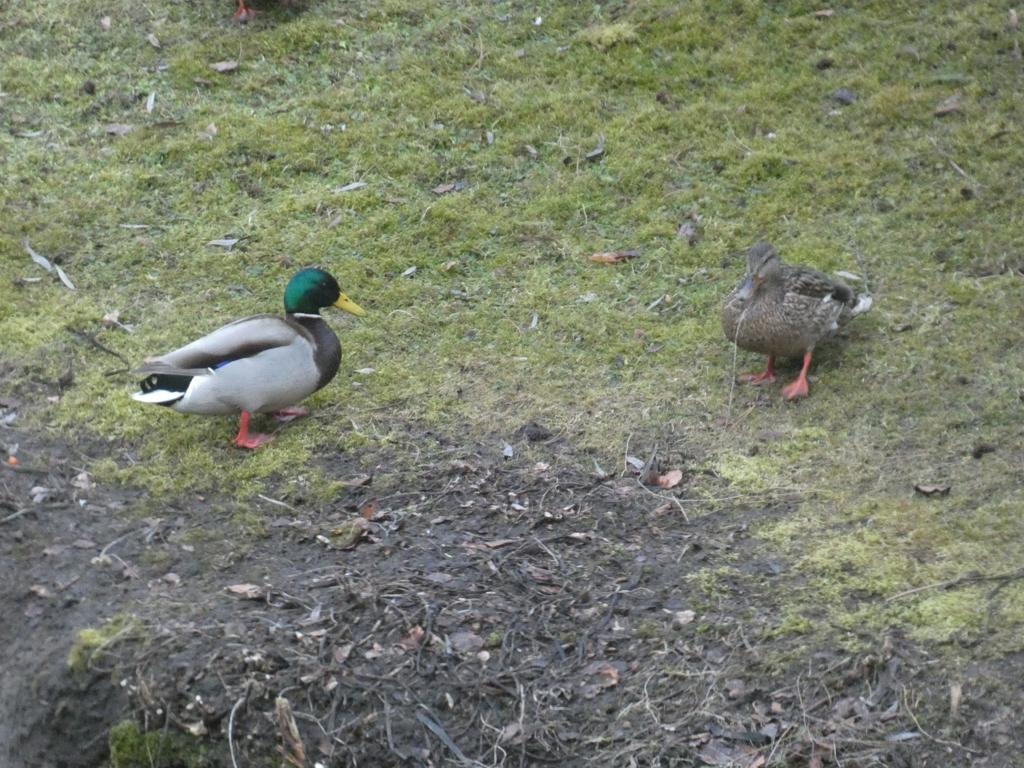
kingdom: Animalia
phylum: Chordata
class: Aves
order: Anseriformes
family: Anatidae
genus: Anas
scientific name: Anas platyrhynchos
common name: Gråand
